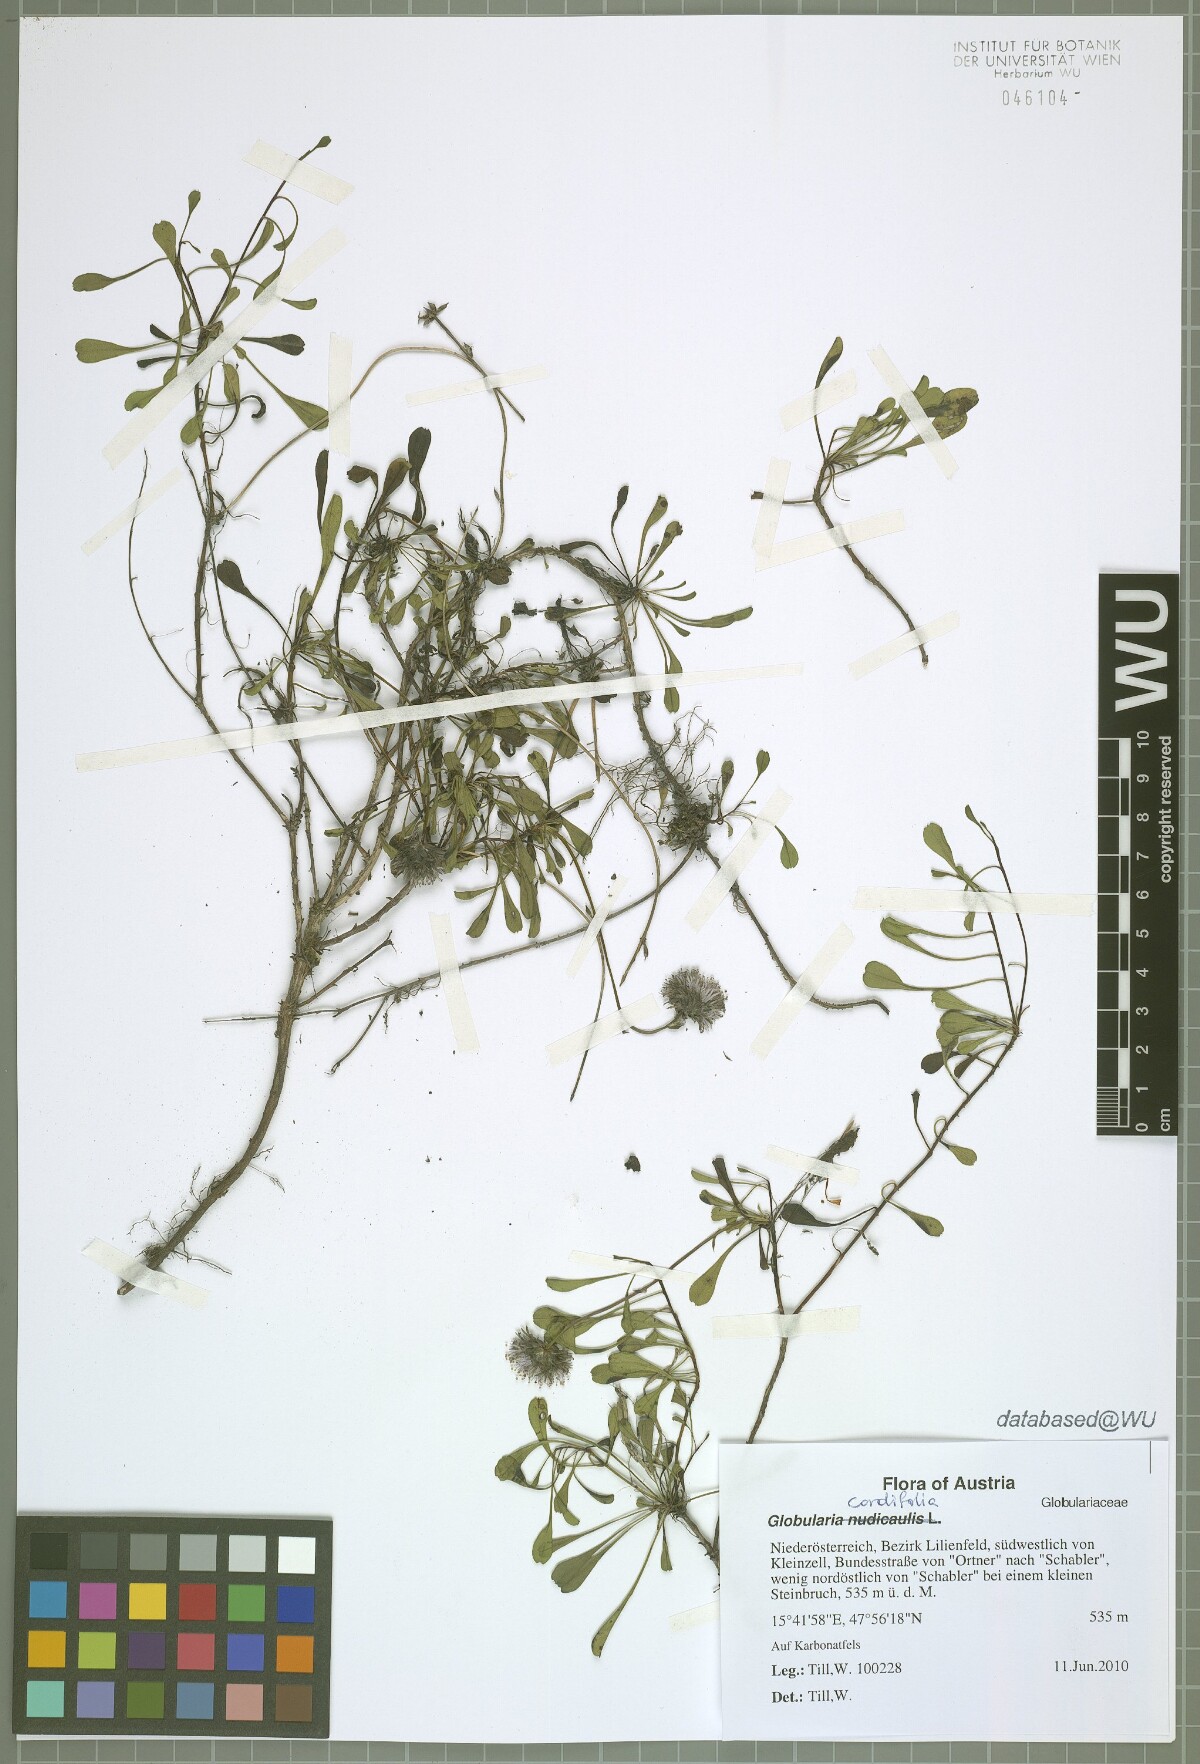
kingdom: Plantae
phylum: Tracheophyta
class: Magnoliopsida
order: Lamiales
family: Plantaginaceae
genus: Globularia
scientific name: Globularia cordifolia
